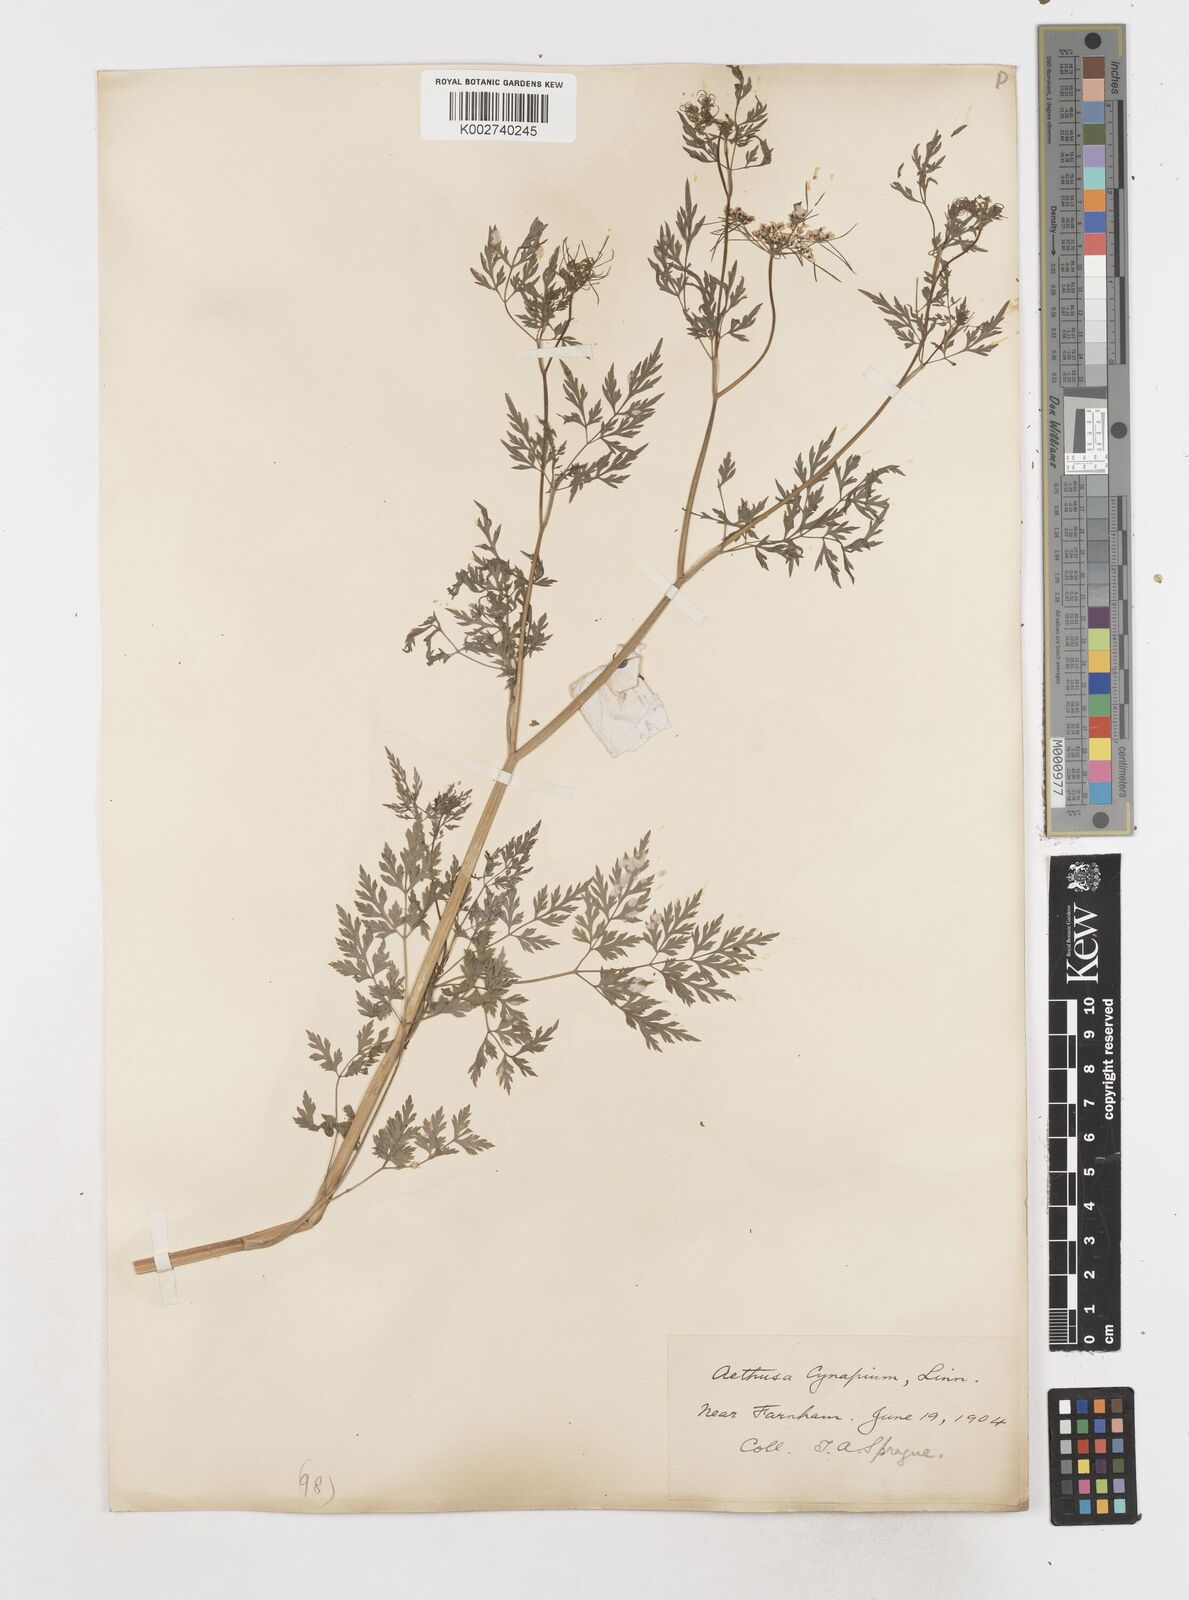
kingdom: Plantae
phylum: Tracheophyta
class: Magnoliopsida
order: Apiales
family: Apiaceae
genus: Aethusa
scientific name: Aethusa cynapium
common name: Fool's parsley
